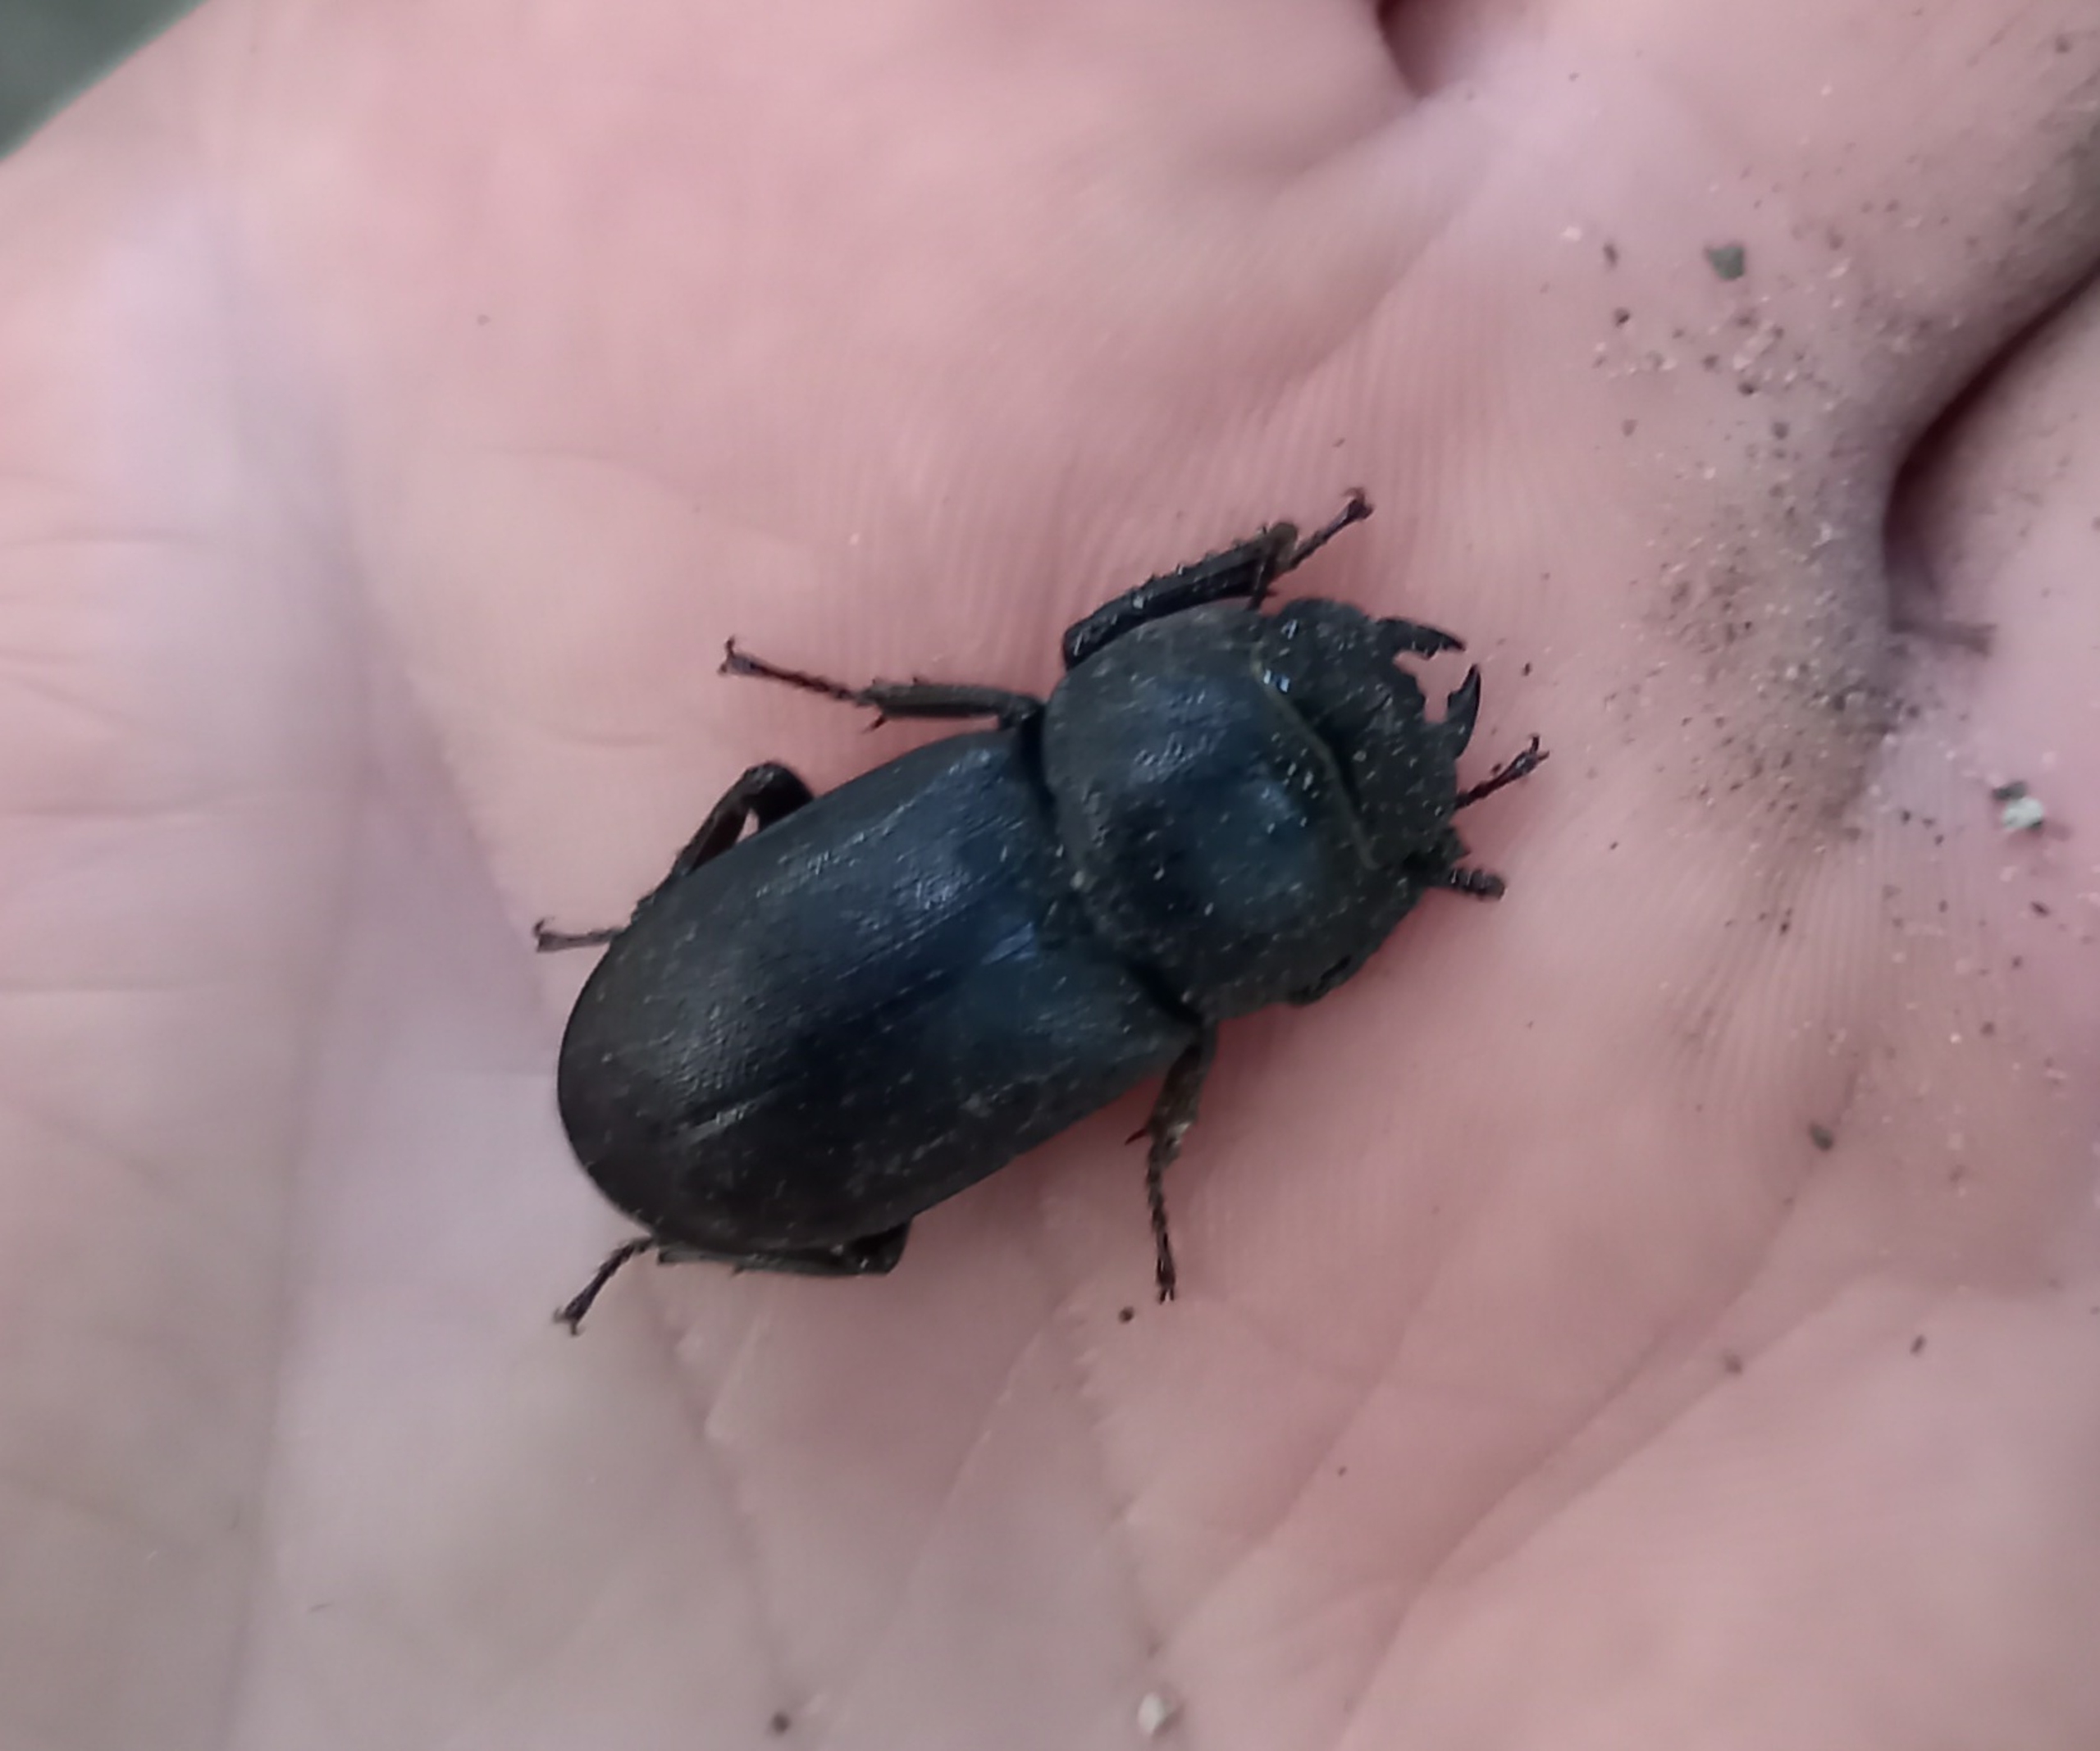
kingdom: Animalia
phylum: Arthropoda
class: Insecta
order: Coleoptera
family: Lucanidae
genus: Dorcus
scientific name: Dorcus parallelipipedus
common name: Bøghjort
